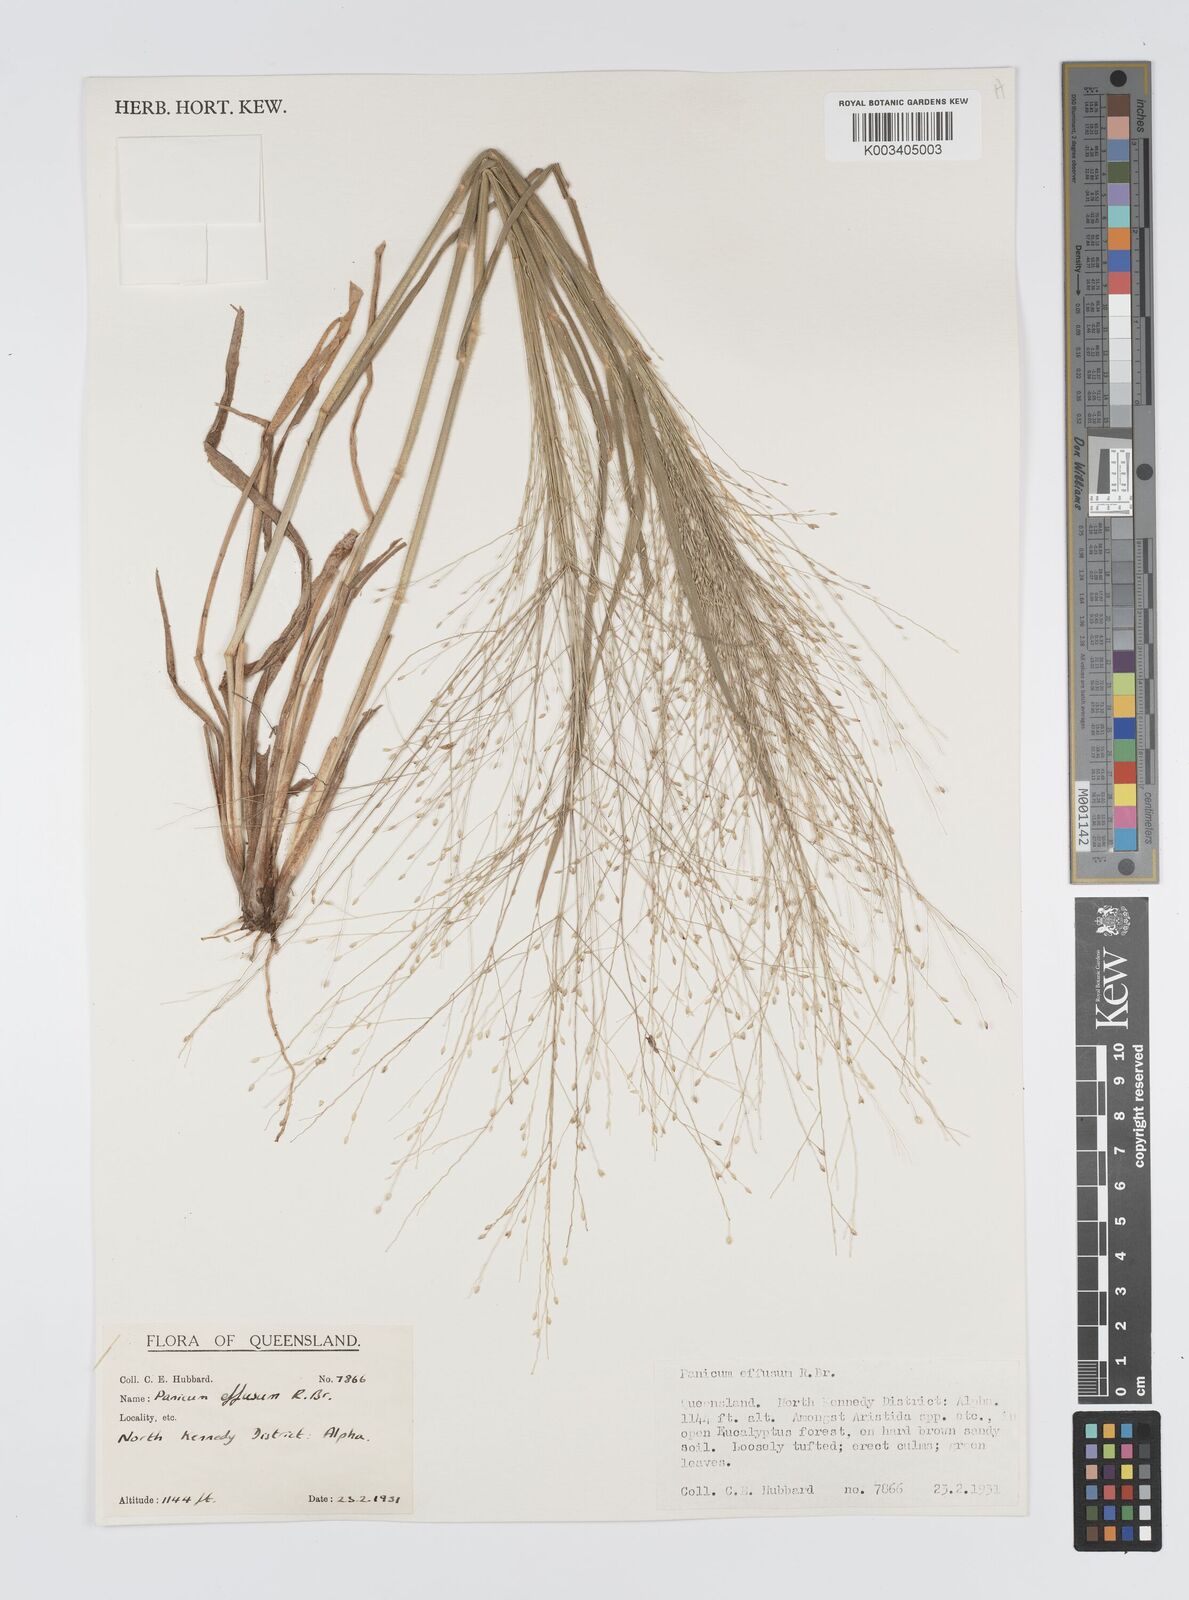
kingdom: Plantae
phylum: Tracheophyta
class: Liliopsida
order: Poales
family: Poaceae
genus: Panicum
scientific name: Panicum effusum
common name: Hairy panic grass
